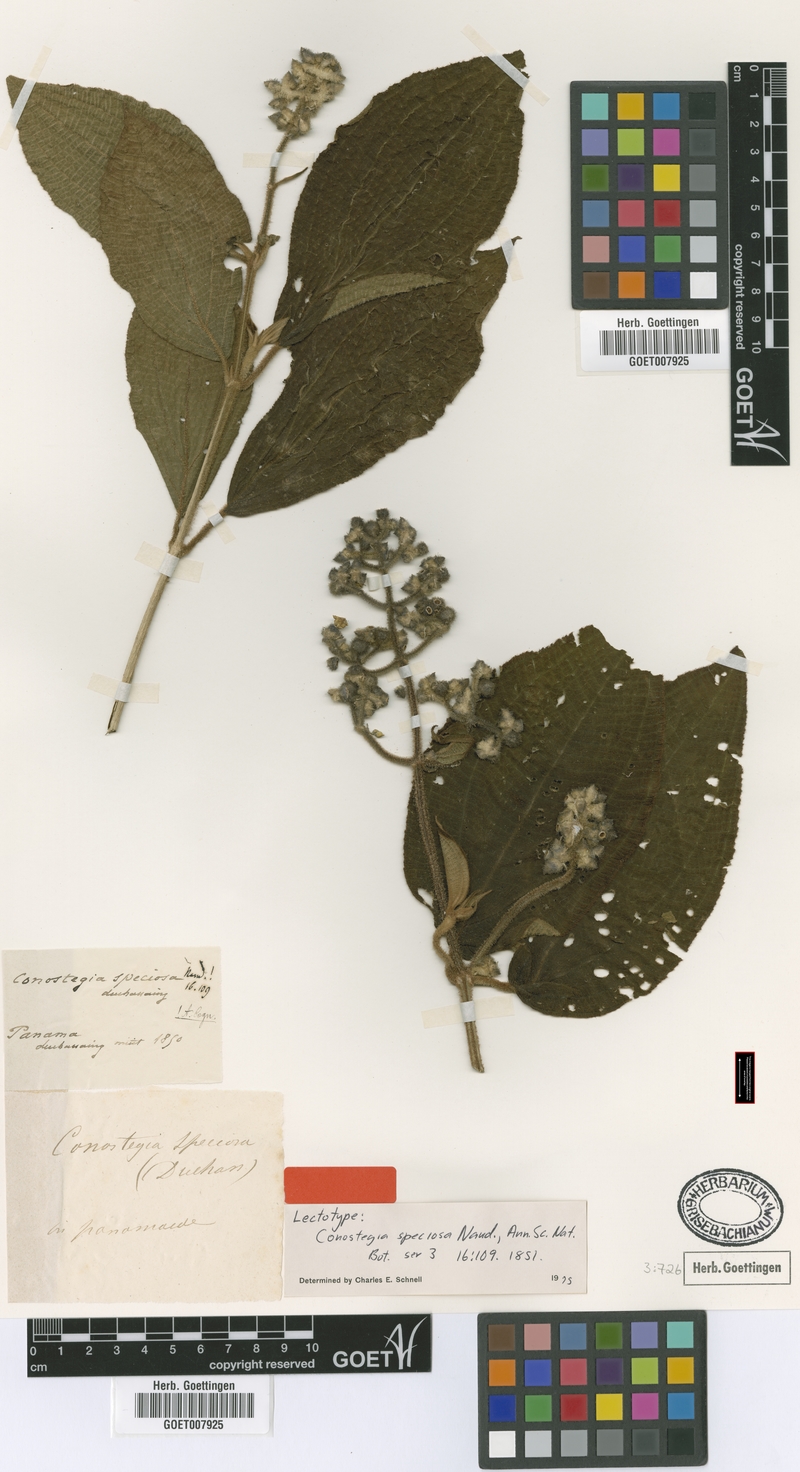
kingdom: Plantae
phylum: Tracheophyta
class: Magnoliopsida
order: Myrtales
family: Melastomataceae
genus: Miconia
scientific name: Miconia conospeciosa
